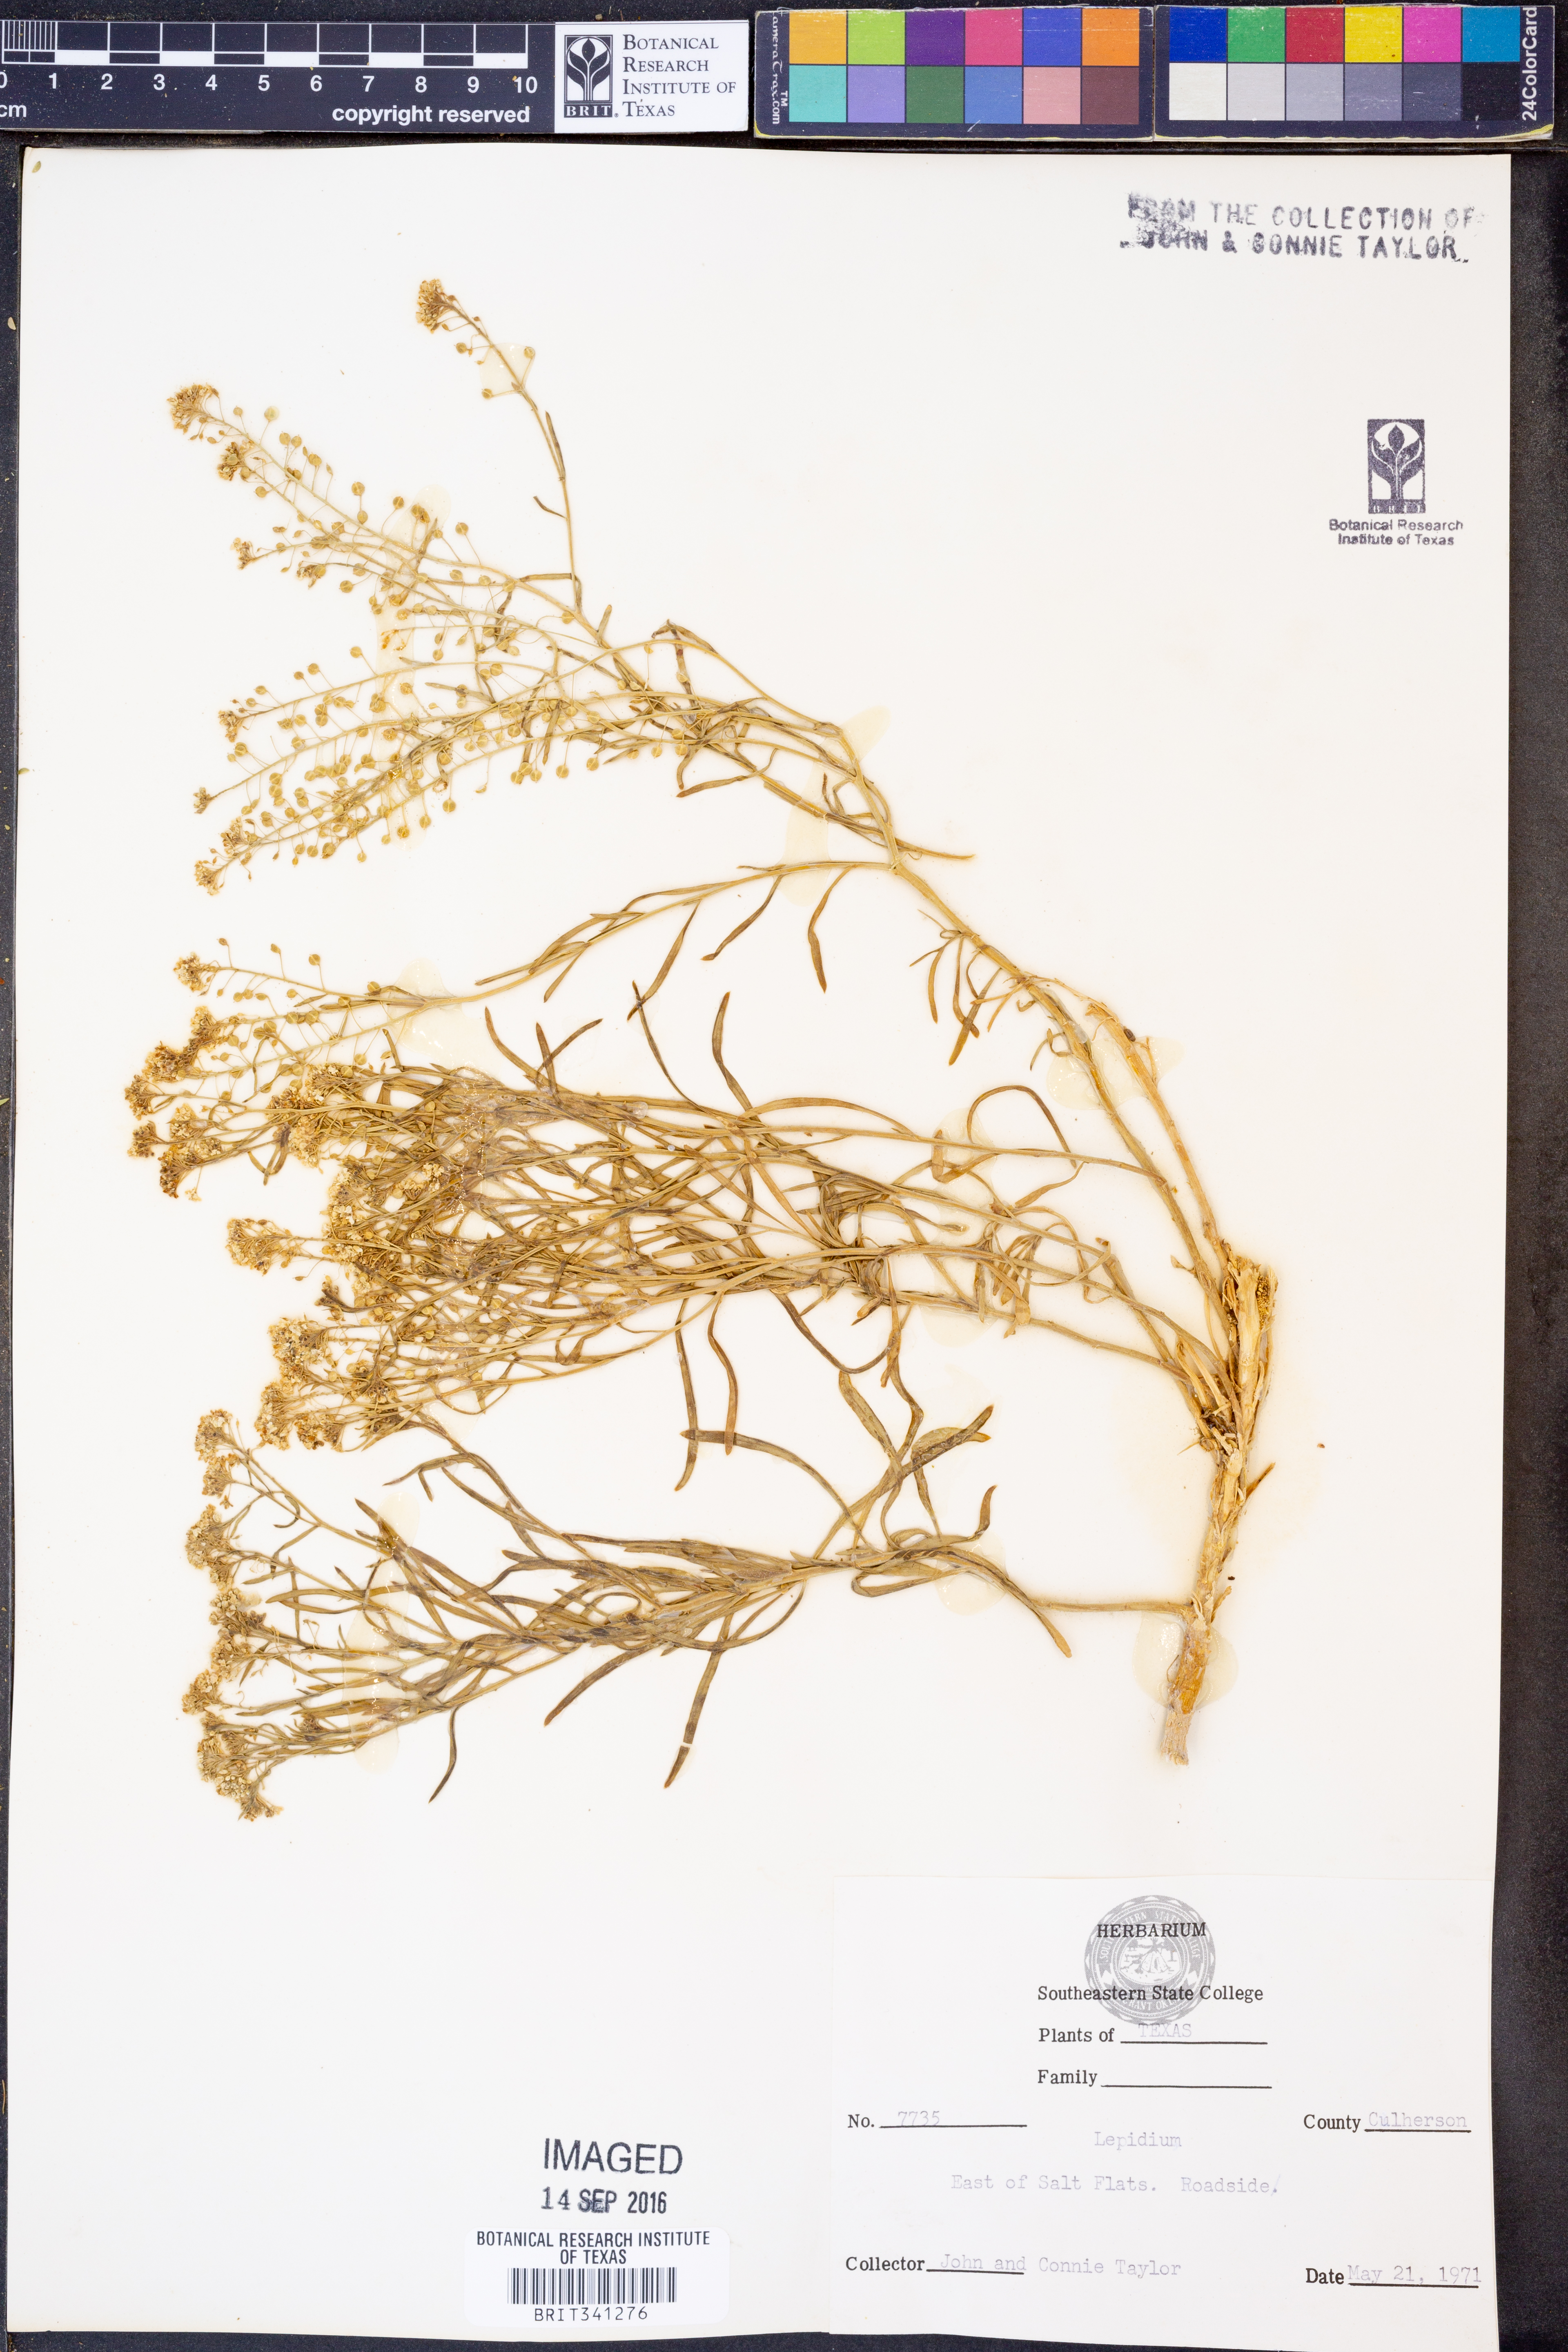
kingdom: Plantae
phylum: Tracheophyta
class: Magnoliopsida
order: Brassicales
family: Brassicaceae
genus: Lepidium
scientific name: Lepidium
